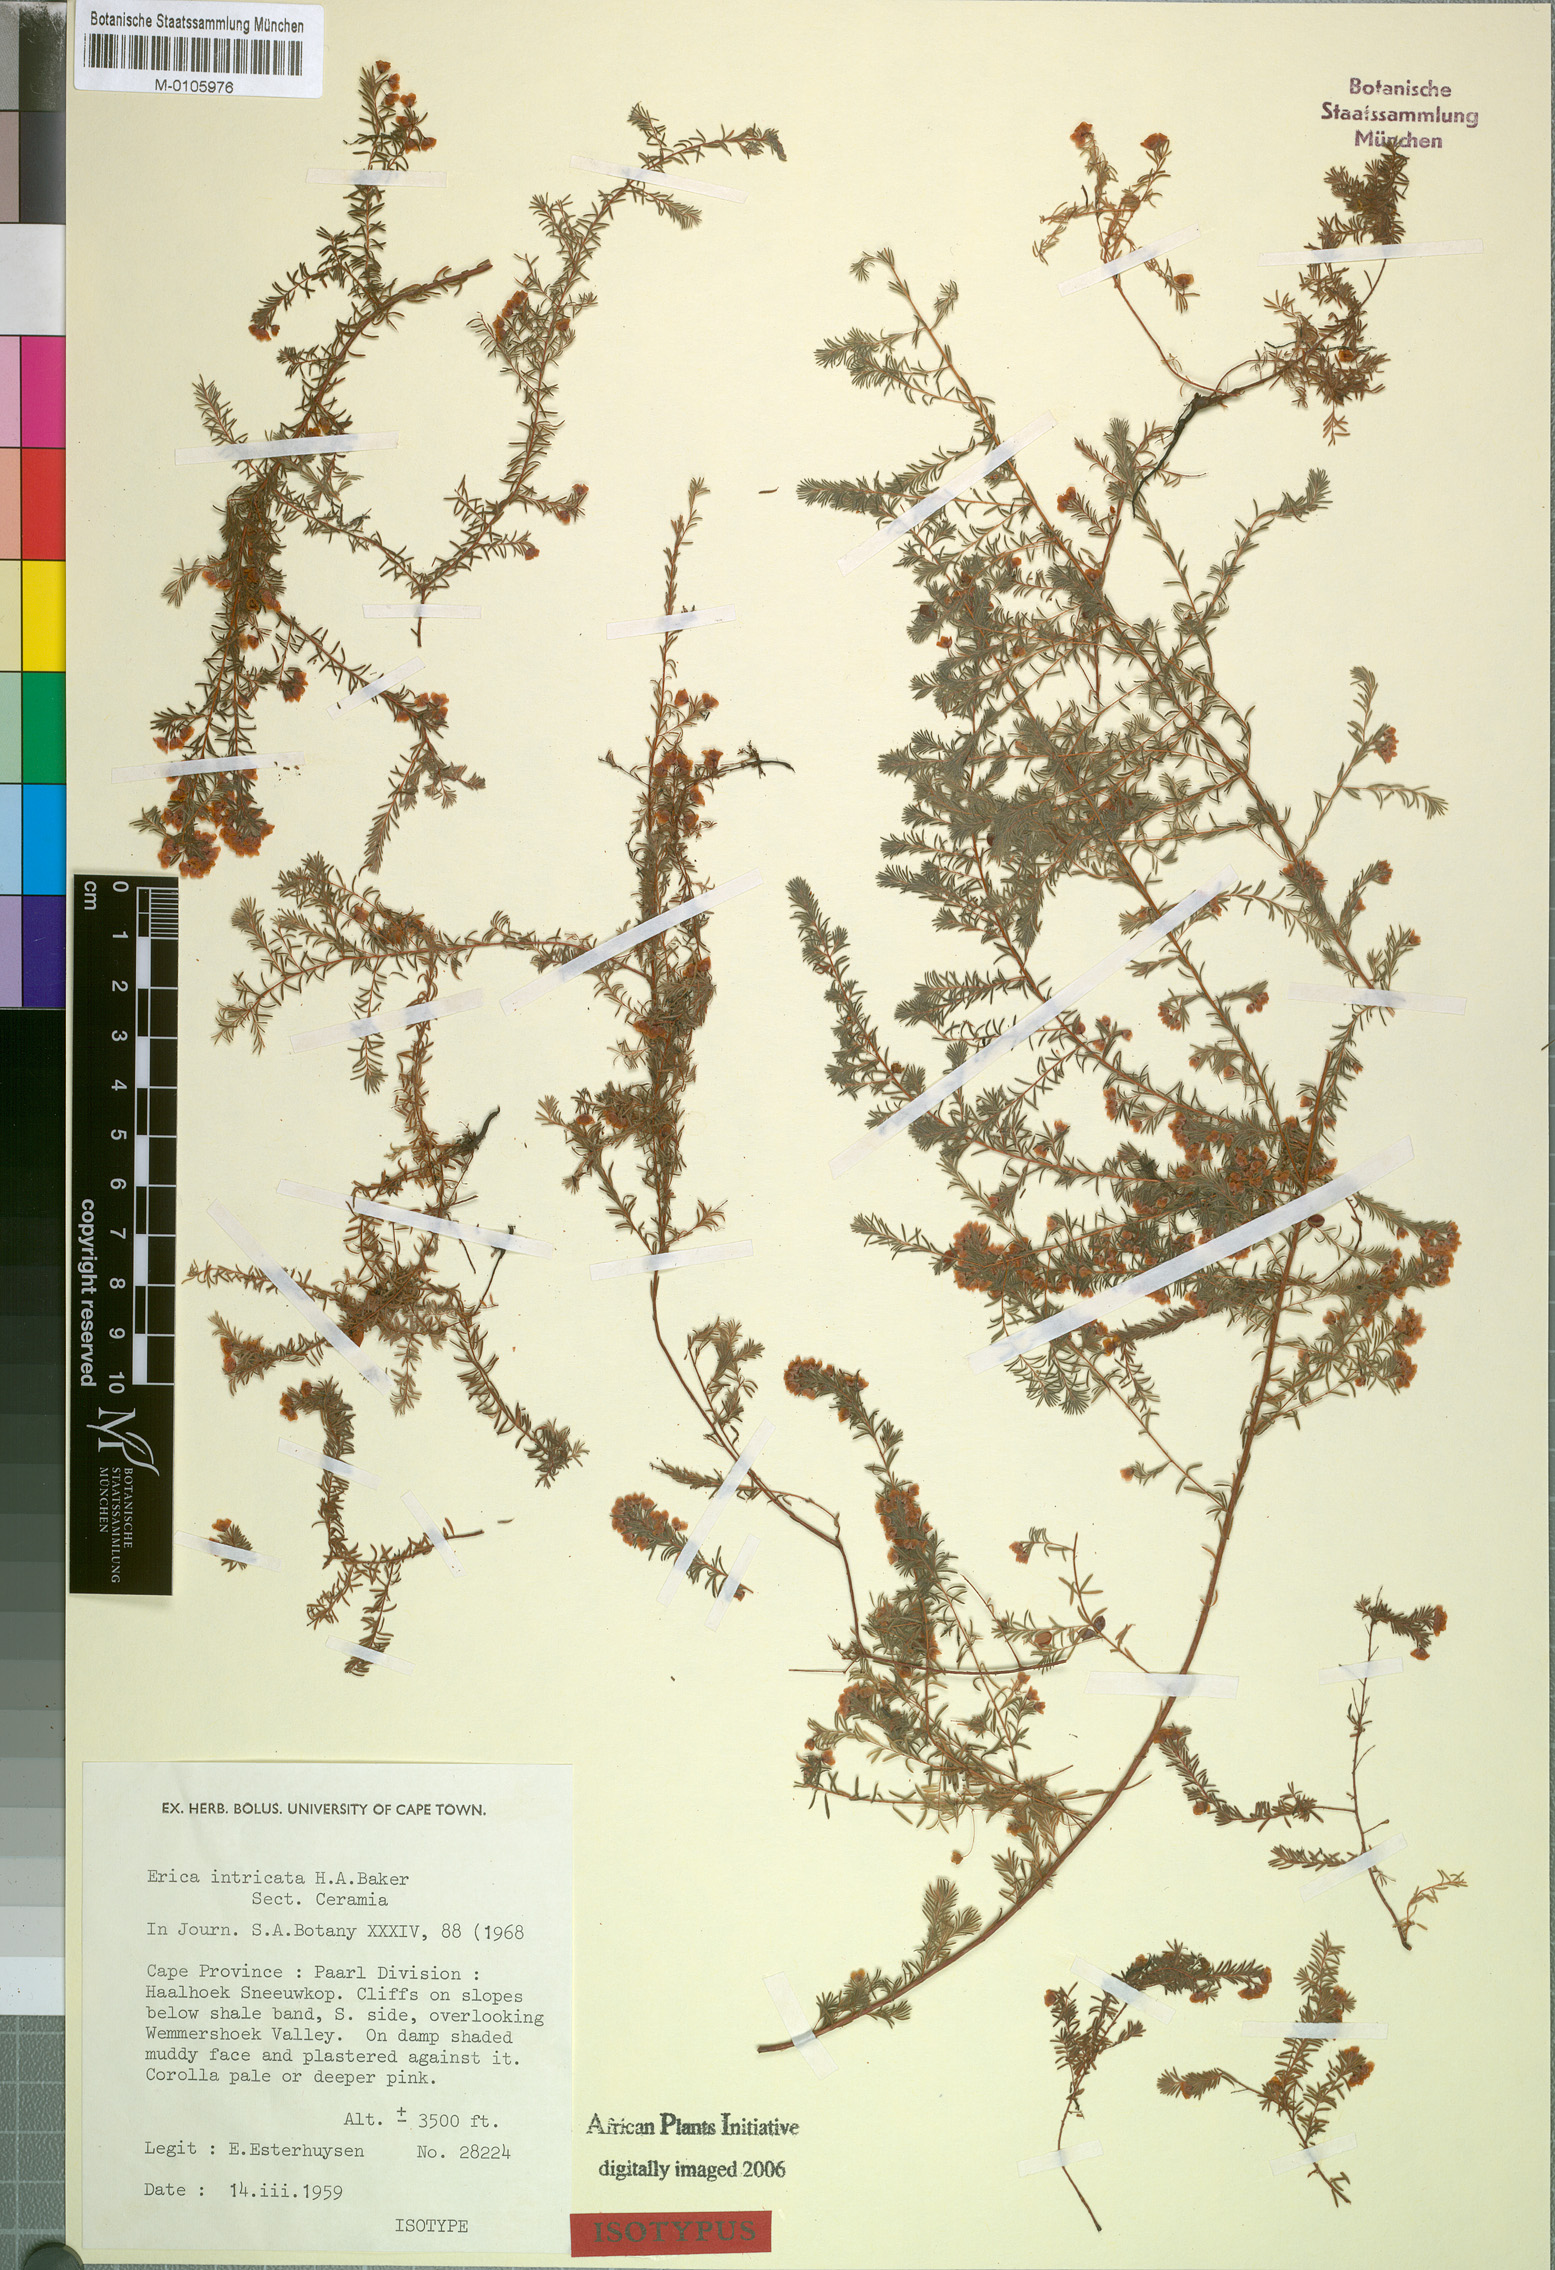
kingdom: Plantae
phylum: Tracheophyta
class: Magnoliopsida
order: Ericales
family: Ericaceae
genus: Erica
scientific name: Erica intricata
